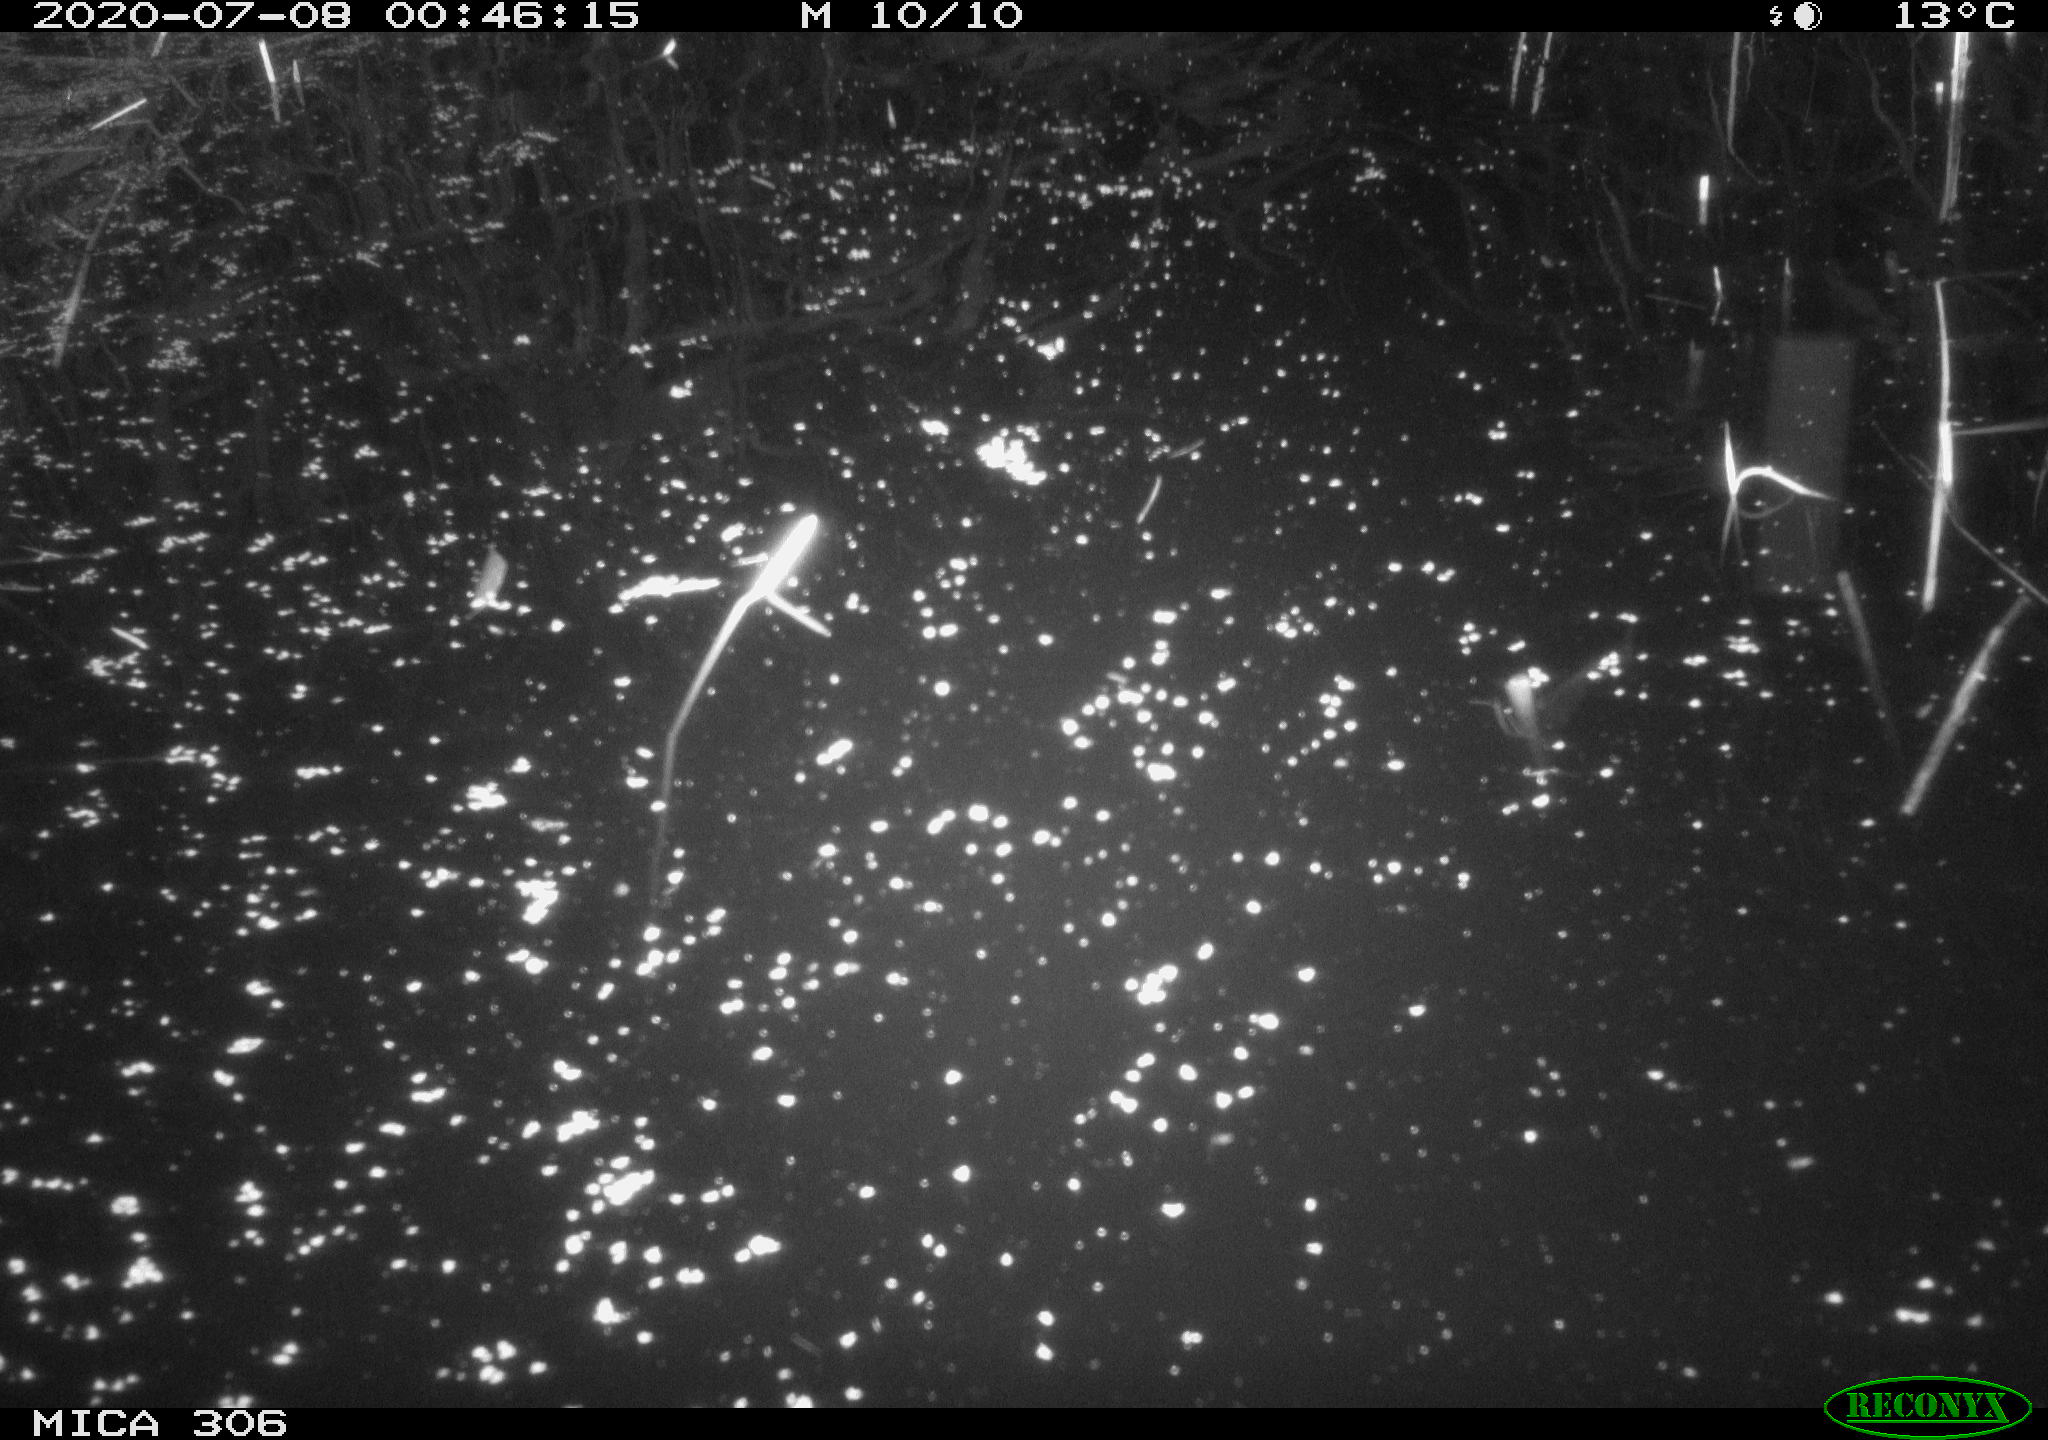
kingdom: Animalia
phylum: Chordata
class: Mammalia
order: Rodentia
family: Muridae
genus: Rattus
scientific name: Rattus norvegicus
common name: Brown rat
